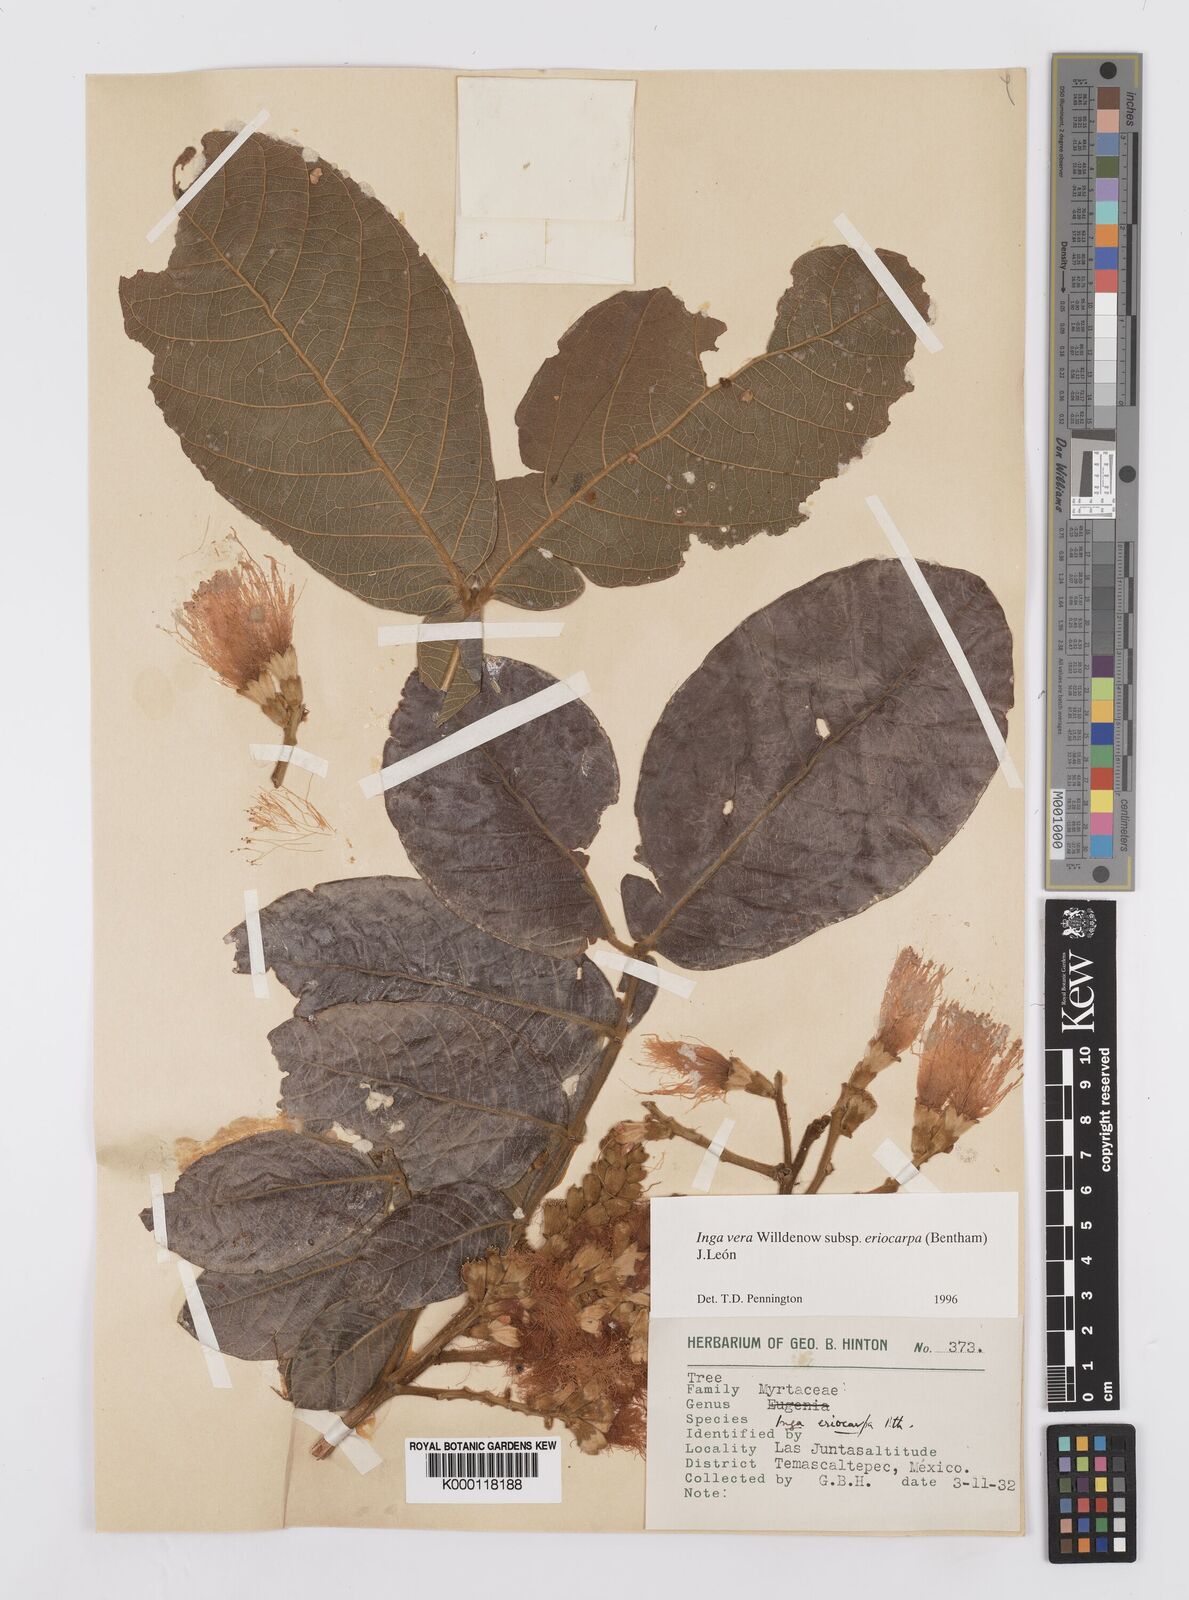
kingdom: Plantae
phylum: Tracheophyta
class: Magnoliopsida
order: Fabales
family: Fabaceae
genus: Inga
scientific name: Inga vera
